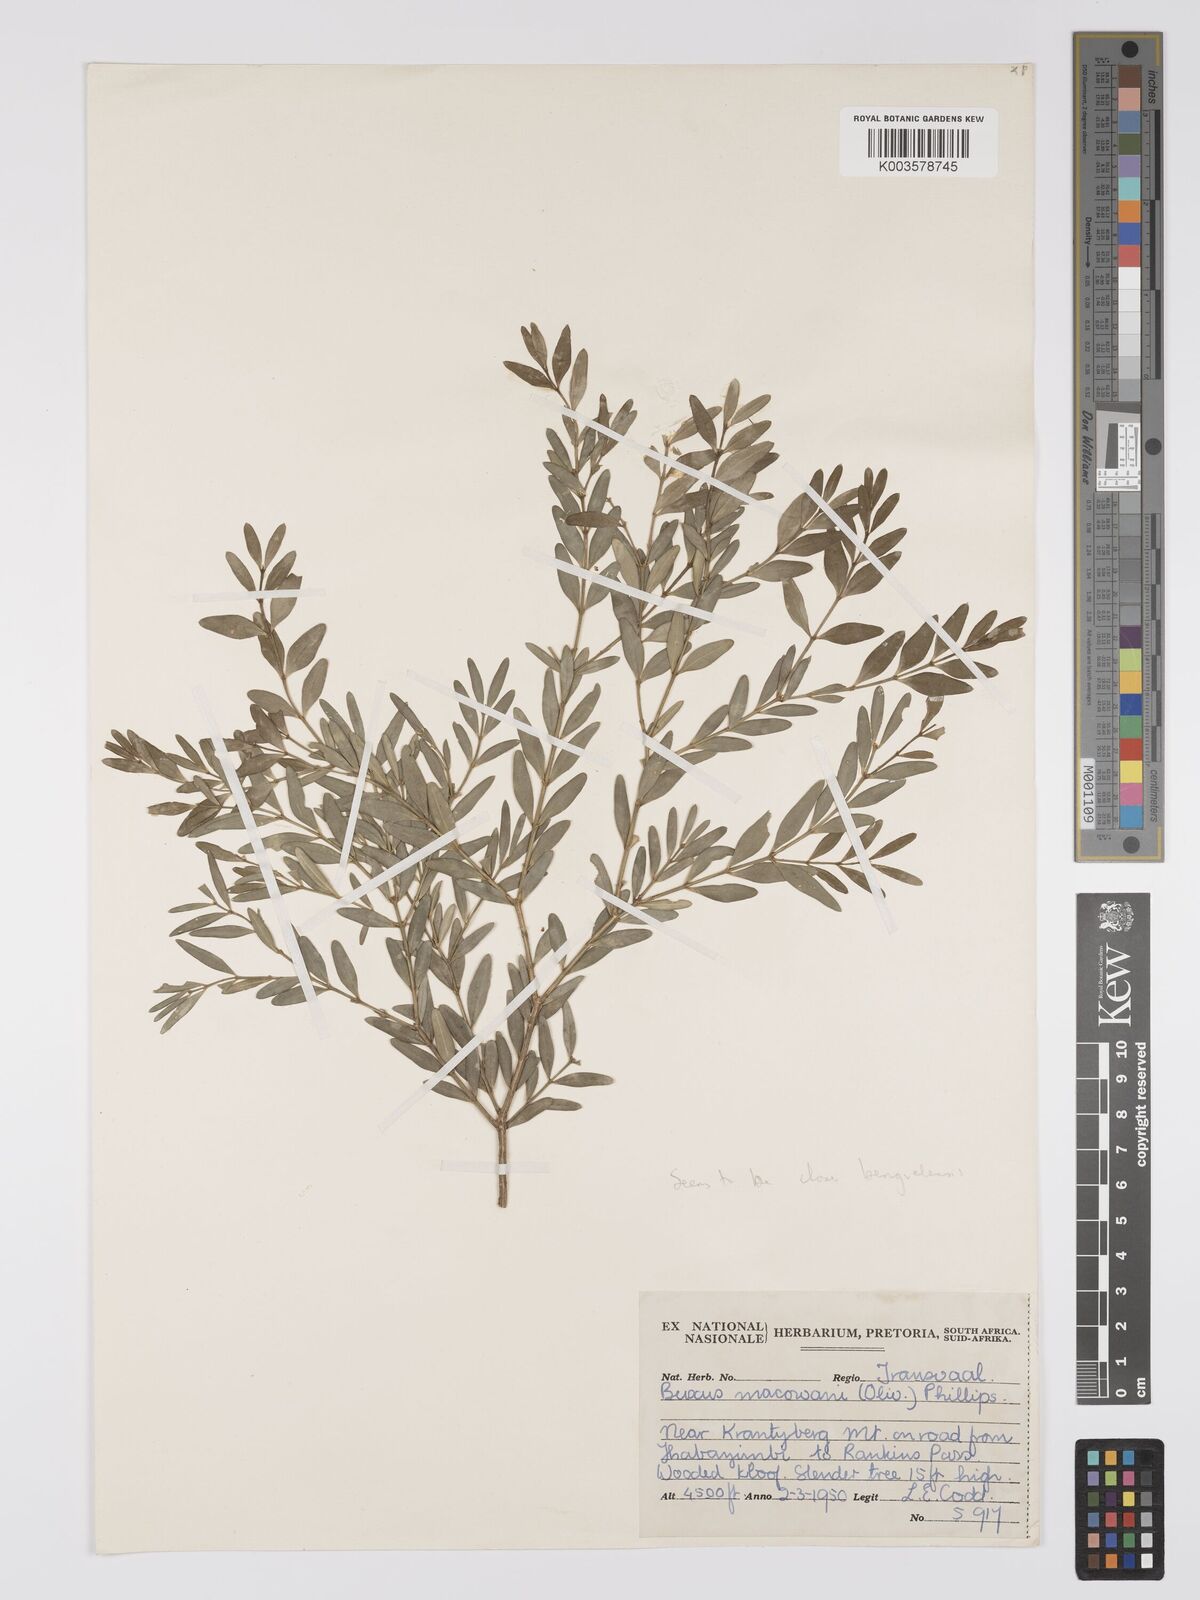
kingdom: Plantae
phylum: Tracheophyta
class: Magnoliopsida
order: Buxales
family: Buxaceae
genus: Buxus
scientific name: Buxus macowanii
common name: Cape box
